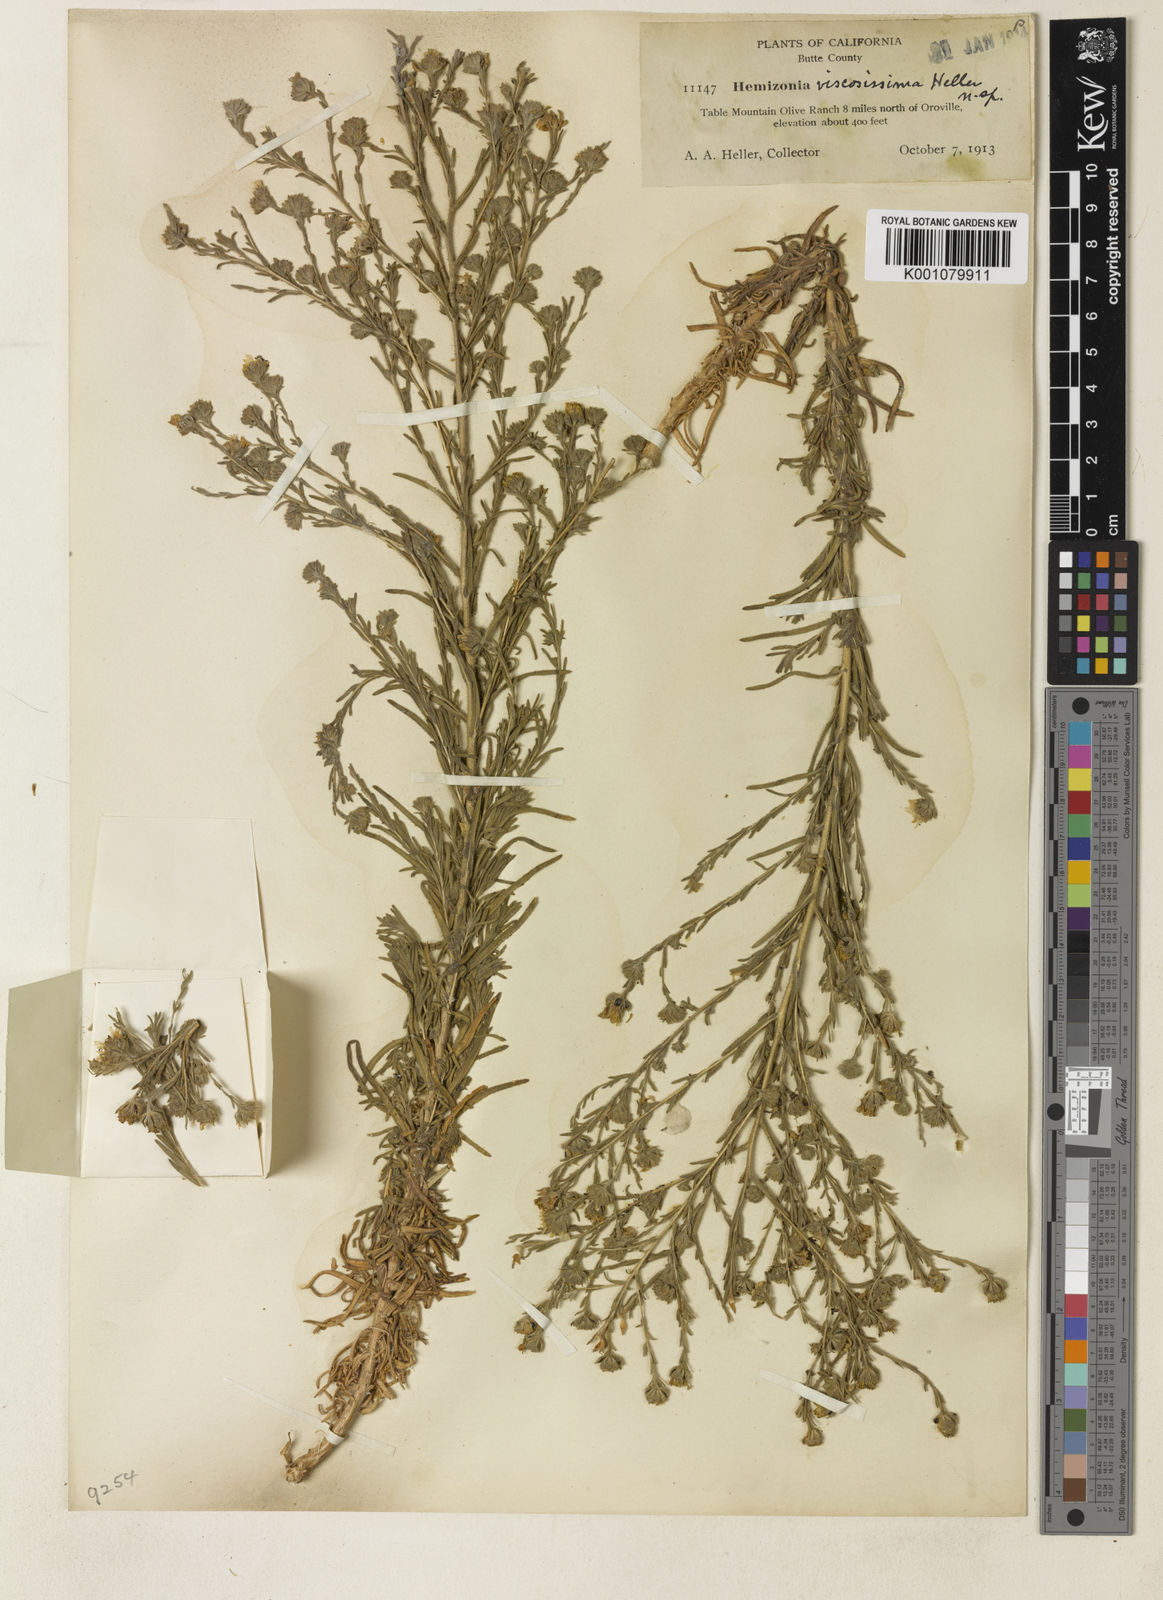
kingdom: Plantae
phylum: Tracheophyta
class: Magnoliopsida
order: Asterales
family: Asteraceae
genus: Hemizonia
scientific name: Hemizonia
